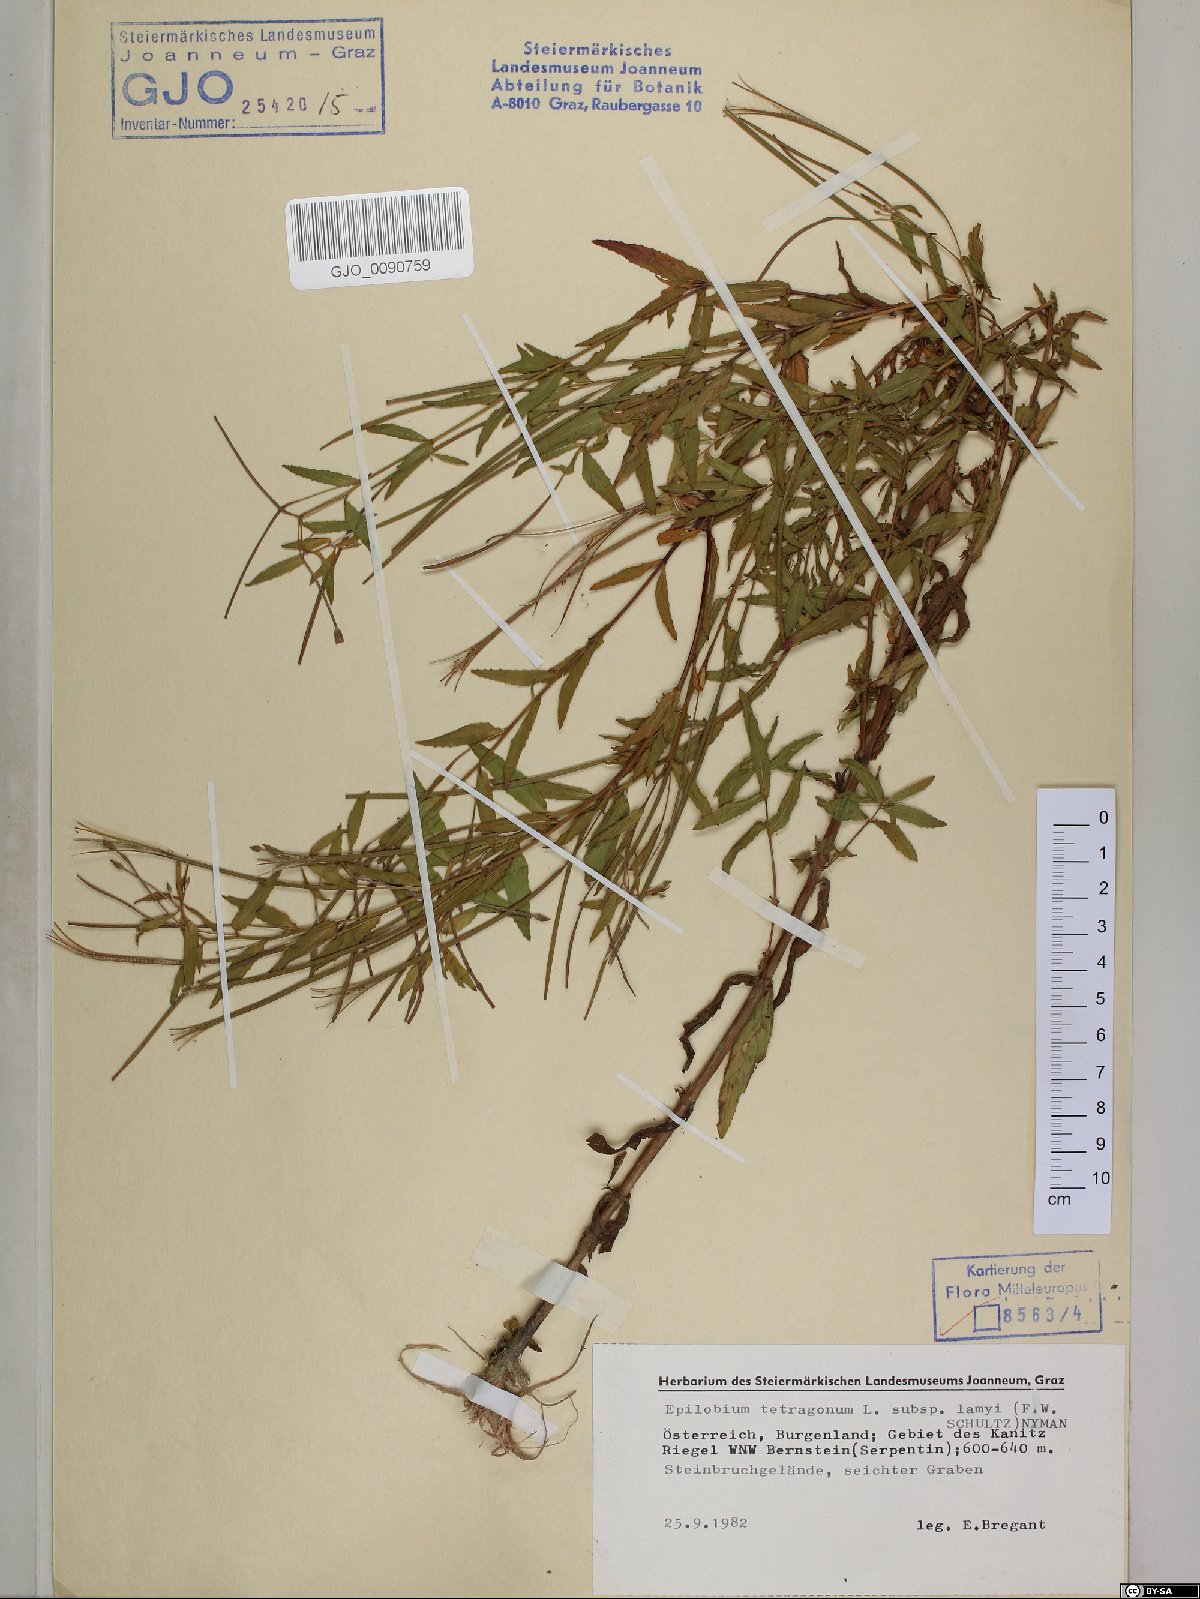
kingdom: Plantae
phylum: Tracheophyta
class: Magnoliopsida
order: Myrtales
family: Onagraceae
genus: Epilobium
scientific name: Epilobium tetragonum
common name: Square-stemmed willowherb
